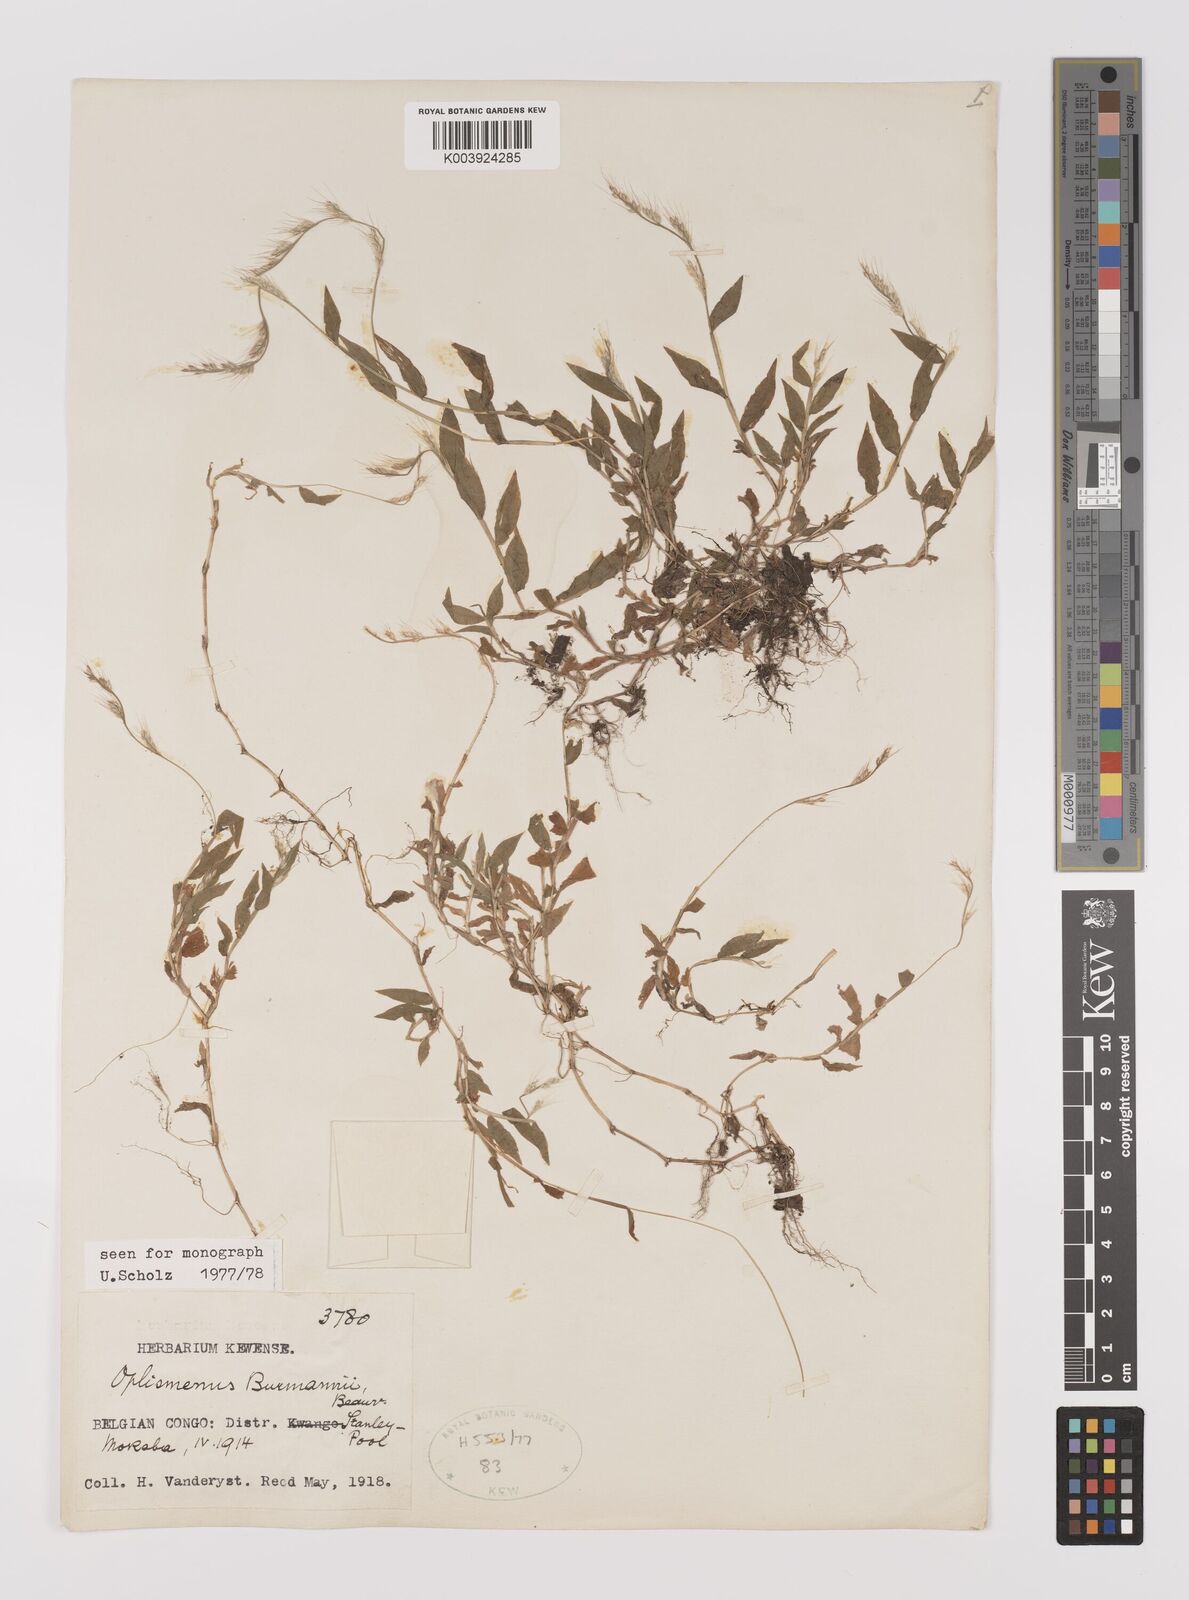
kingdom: Plantae
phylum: Tracheophyta
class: Liliopsida
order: Poales
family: Poaceae
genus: Oplismenus
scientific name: Oplismenus burmanni
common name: Burmann's basketgrass
